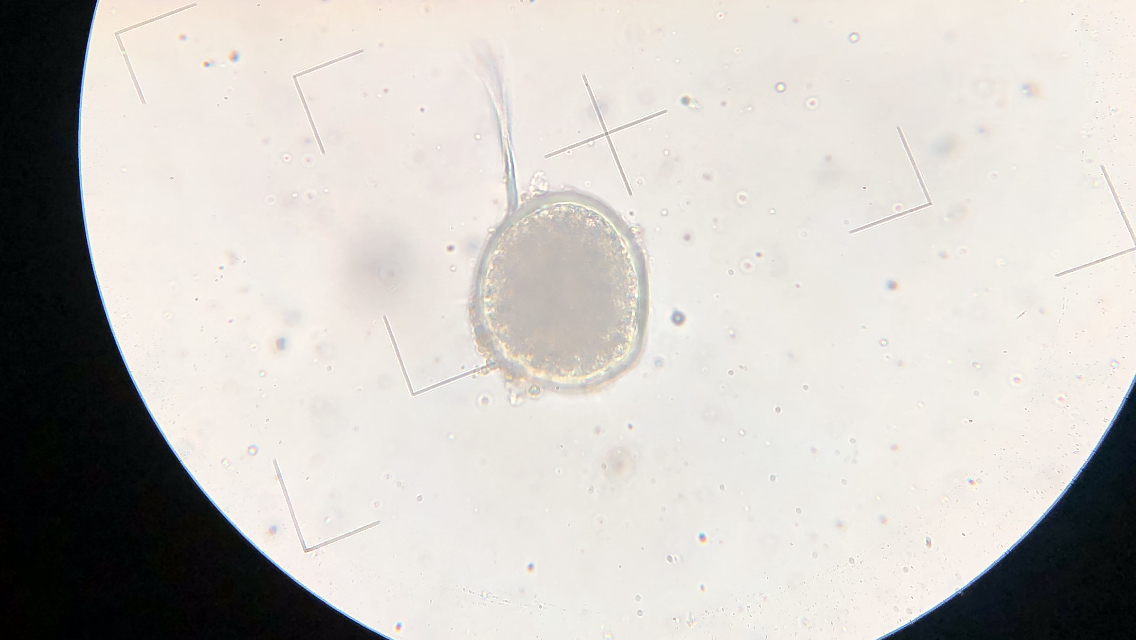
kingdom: Fungi
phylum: Ascomycota
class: Taphrinomycetes
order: Taphrinales
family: Taphrinaceae
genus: Protomyces
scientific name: Protomyces macrosporus
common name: skvalderkål-vablesæk
